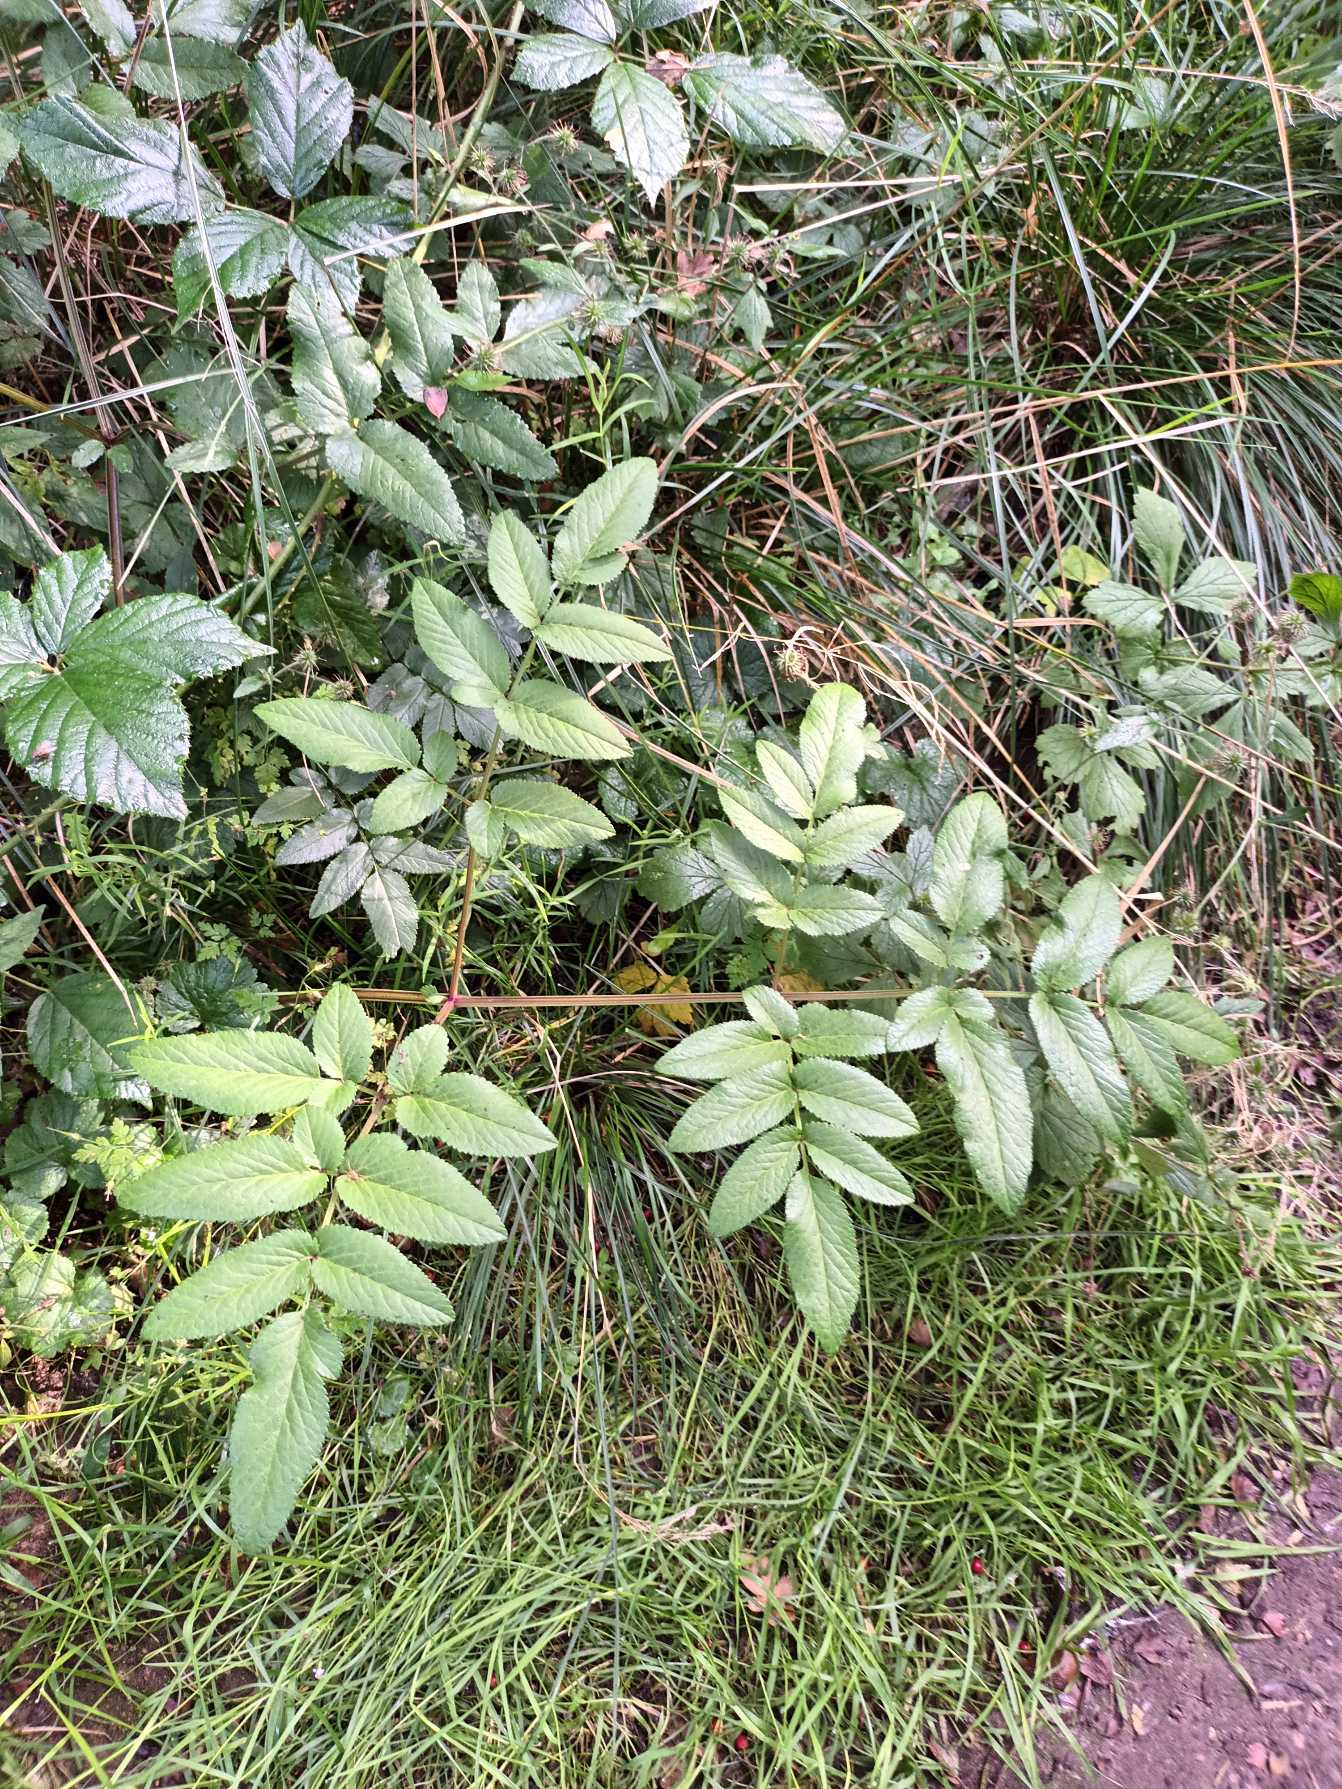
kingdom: Plantae
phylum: Tracheophyta
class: Magnoliopsida
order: Apiales
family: Apiaceae
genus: Angelica
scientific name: Angelica sylvestris
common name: Angelik
